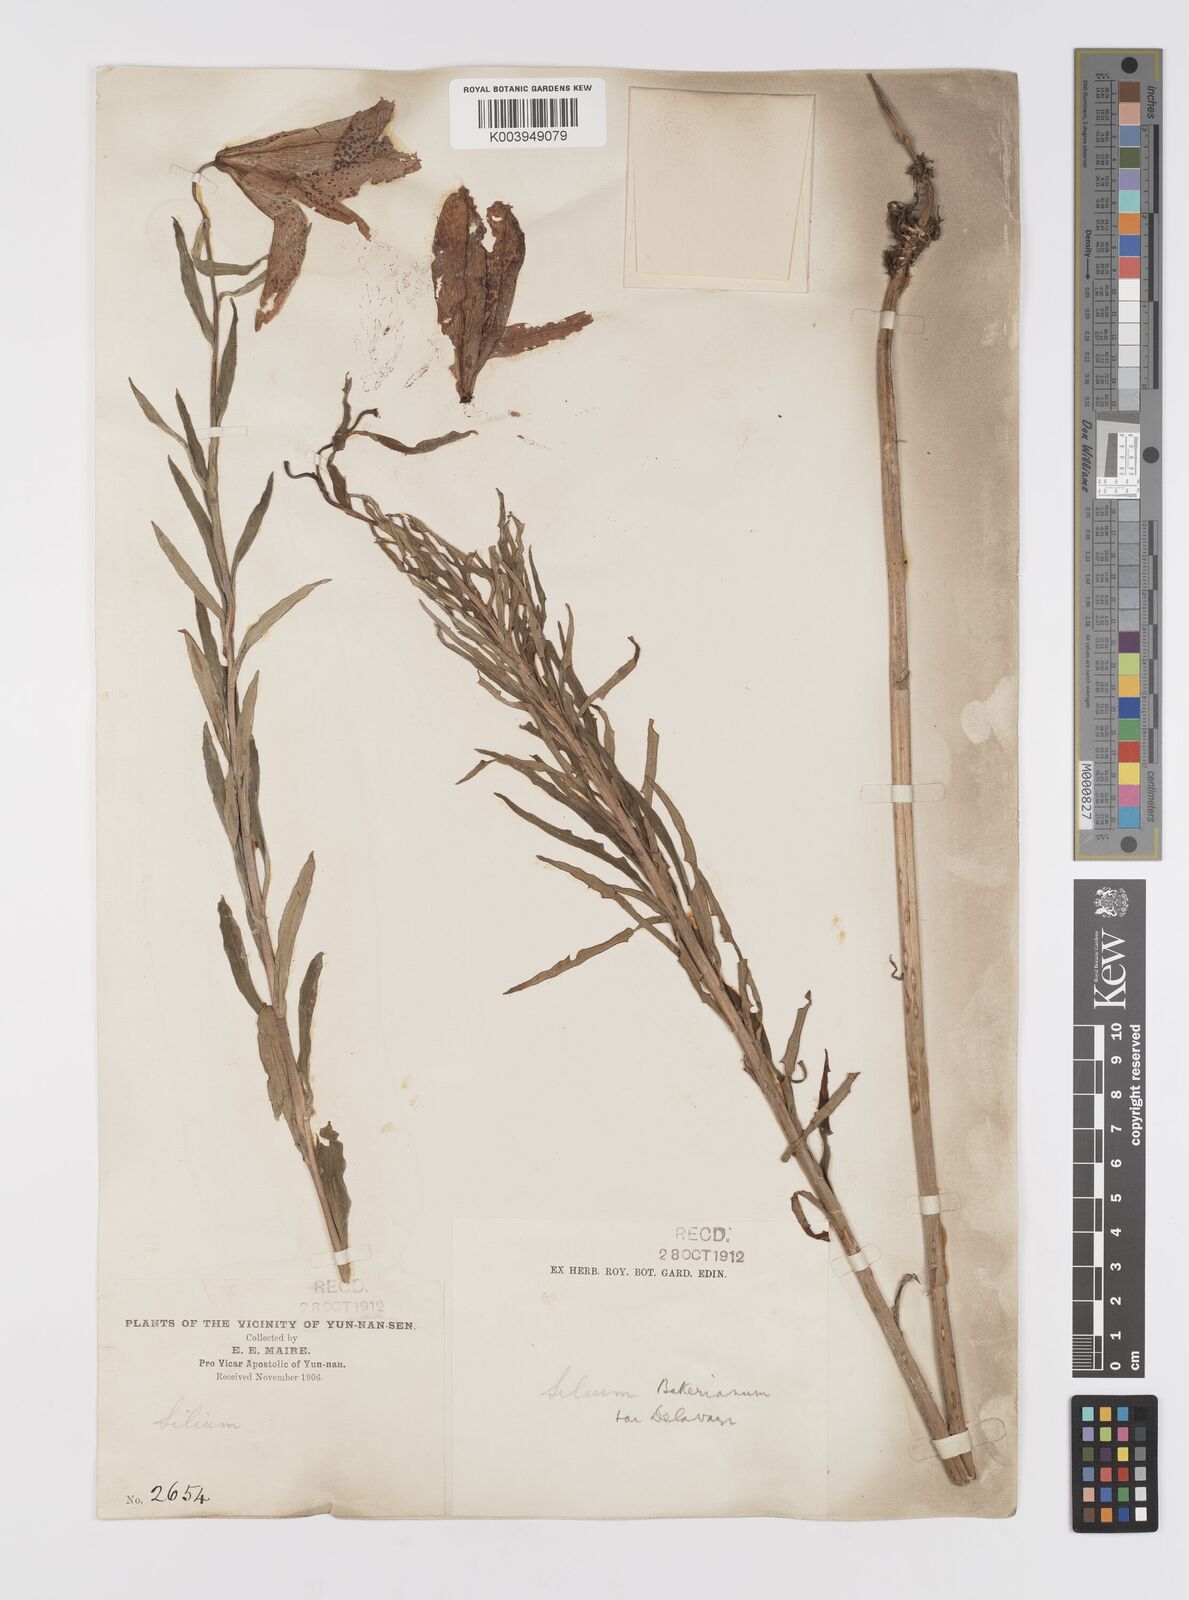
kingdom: Plantae
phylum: Tracheophyta
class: Liliopsida
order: Liliales
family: Liliaceae
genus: Lilium
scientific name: Lilium bakerianum
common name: Baker's lily
